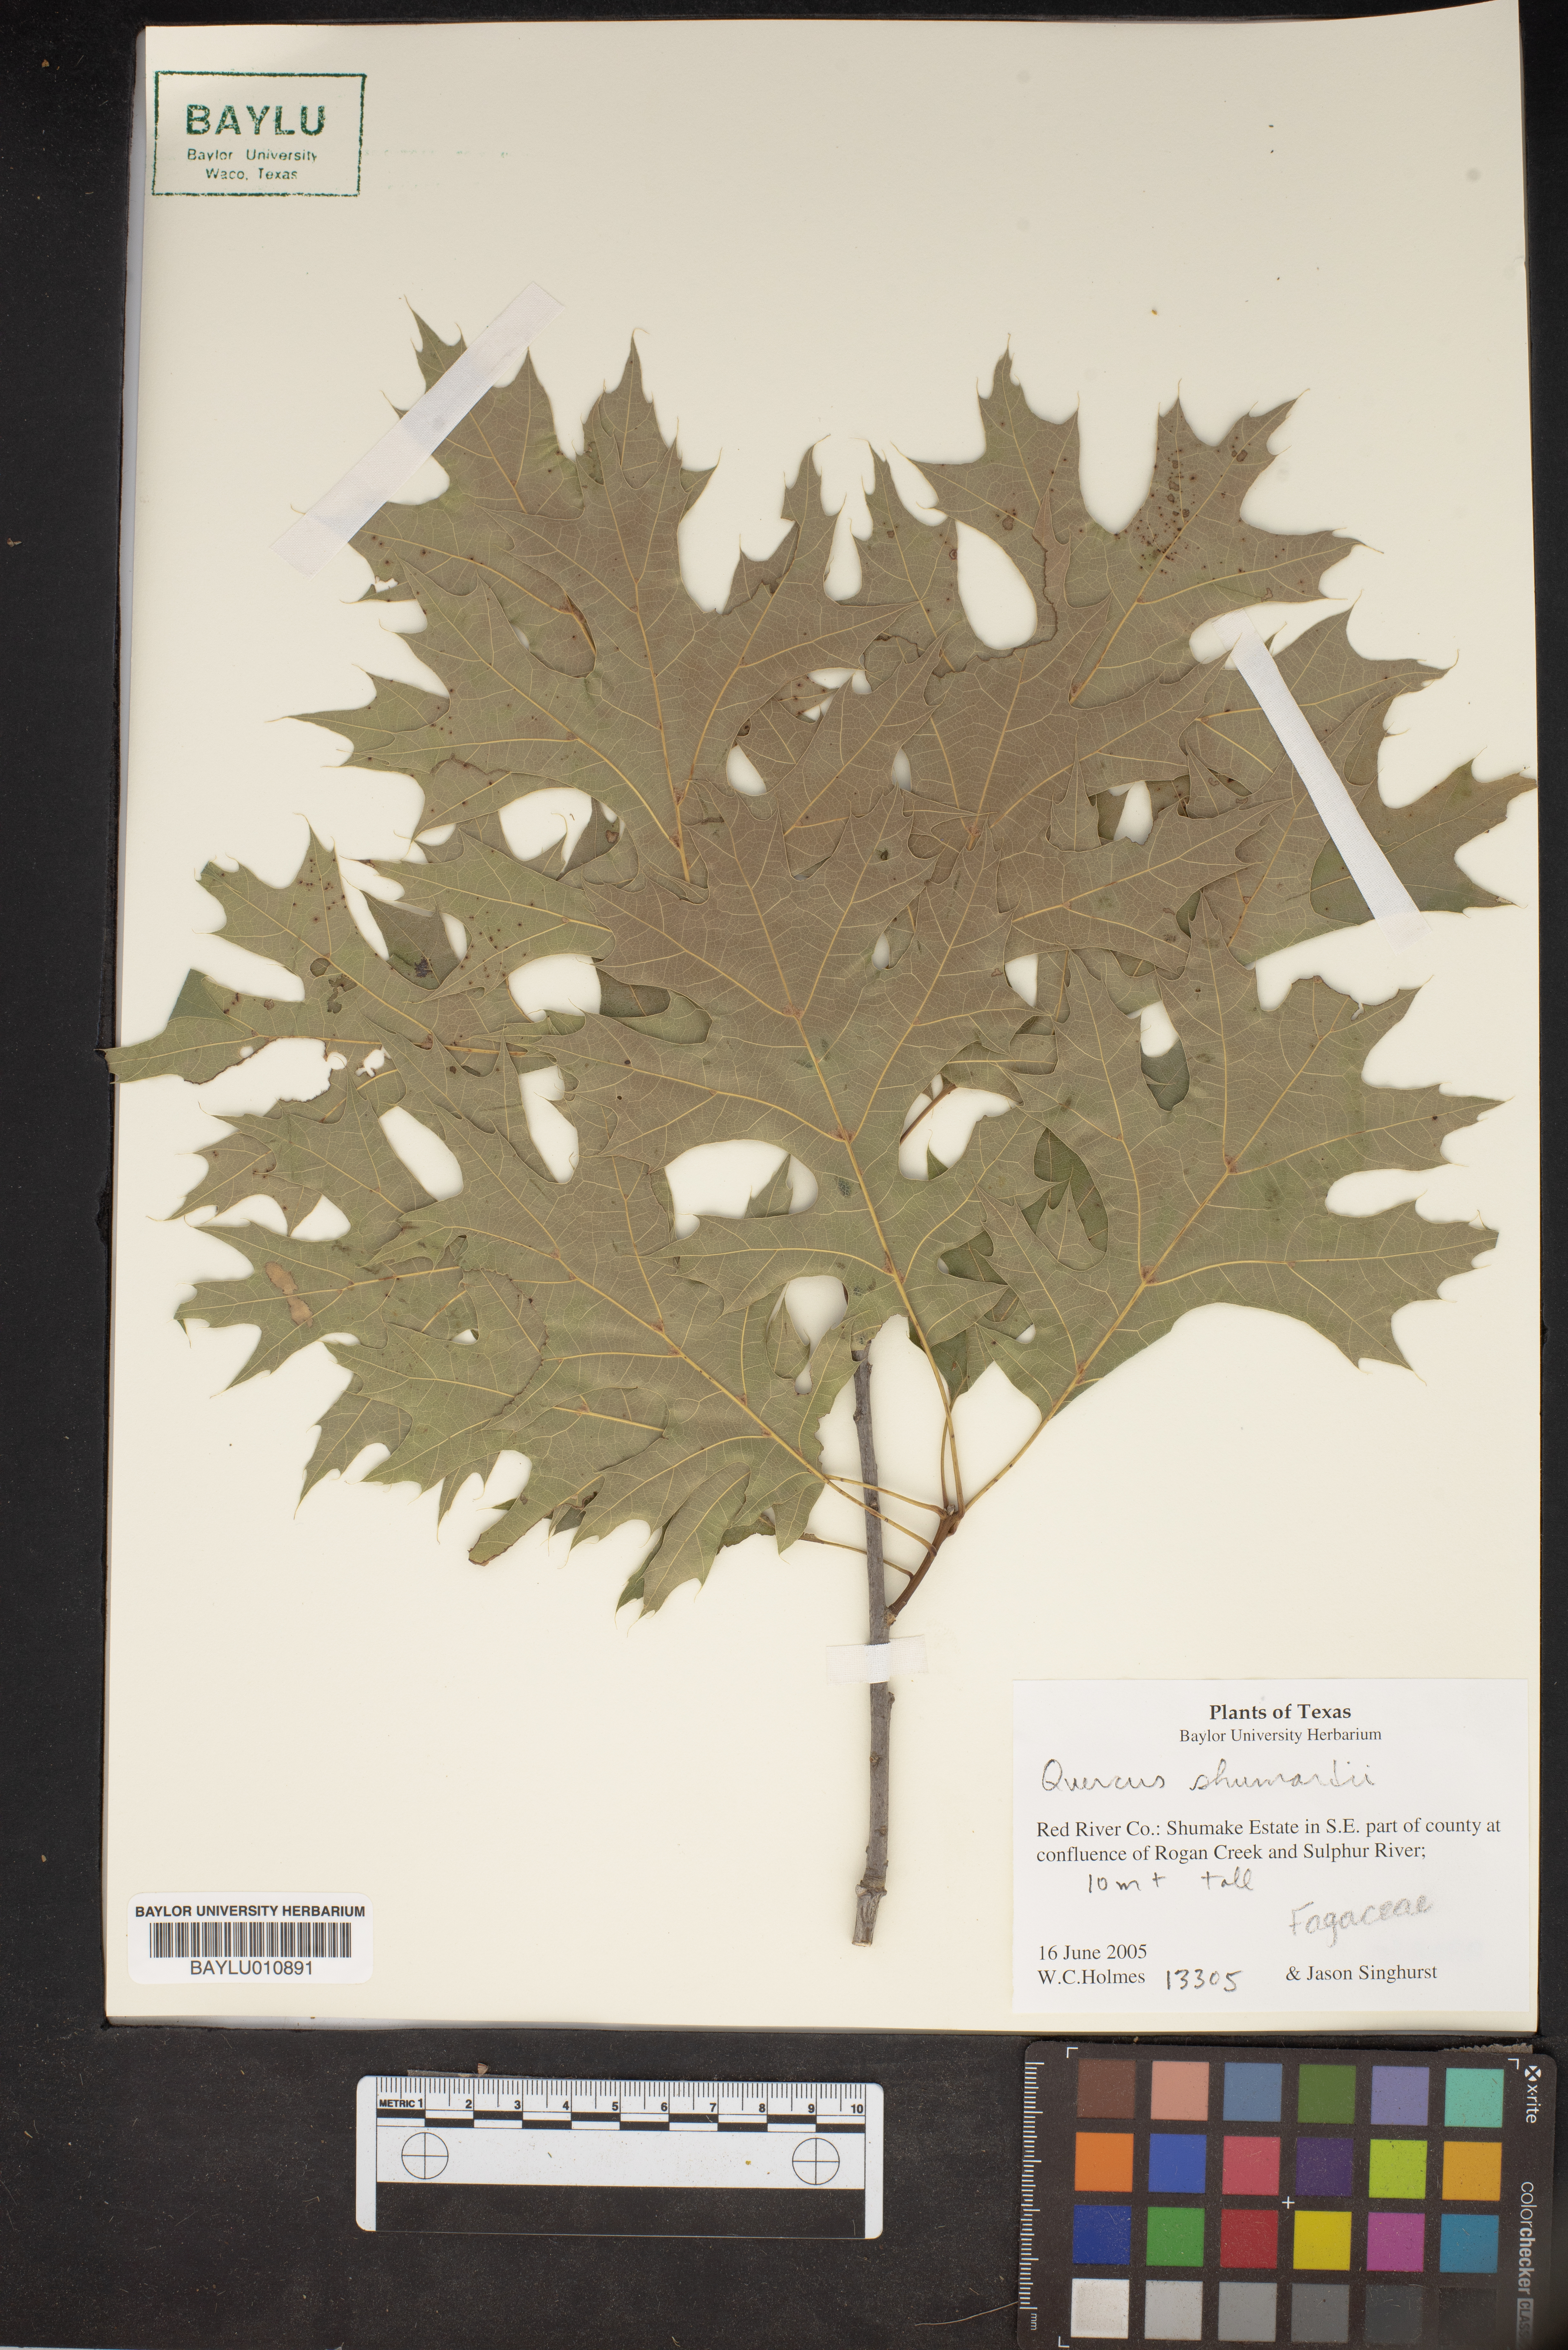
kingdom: Plantae
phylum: Tracheophyta
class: Magnoliopsida
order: Fagales
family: Fagaceae
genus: Quercus
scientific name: Quercus shumardii
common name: Shumard oak
